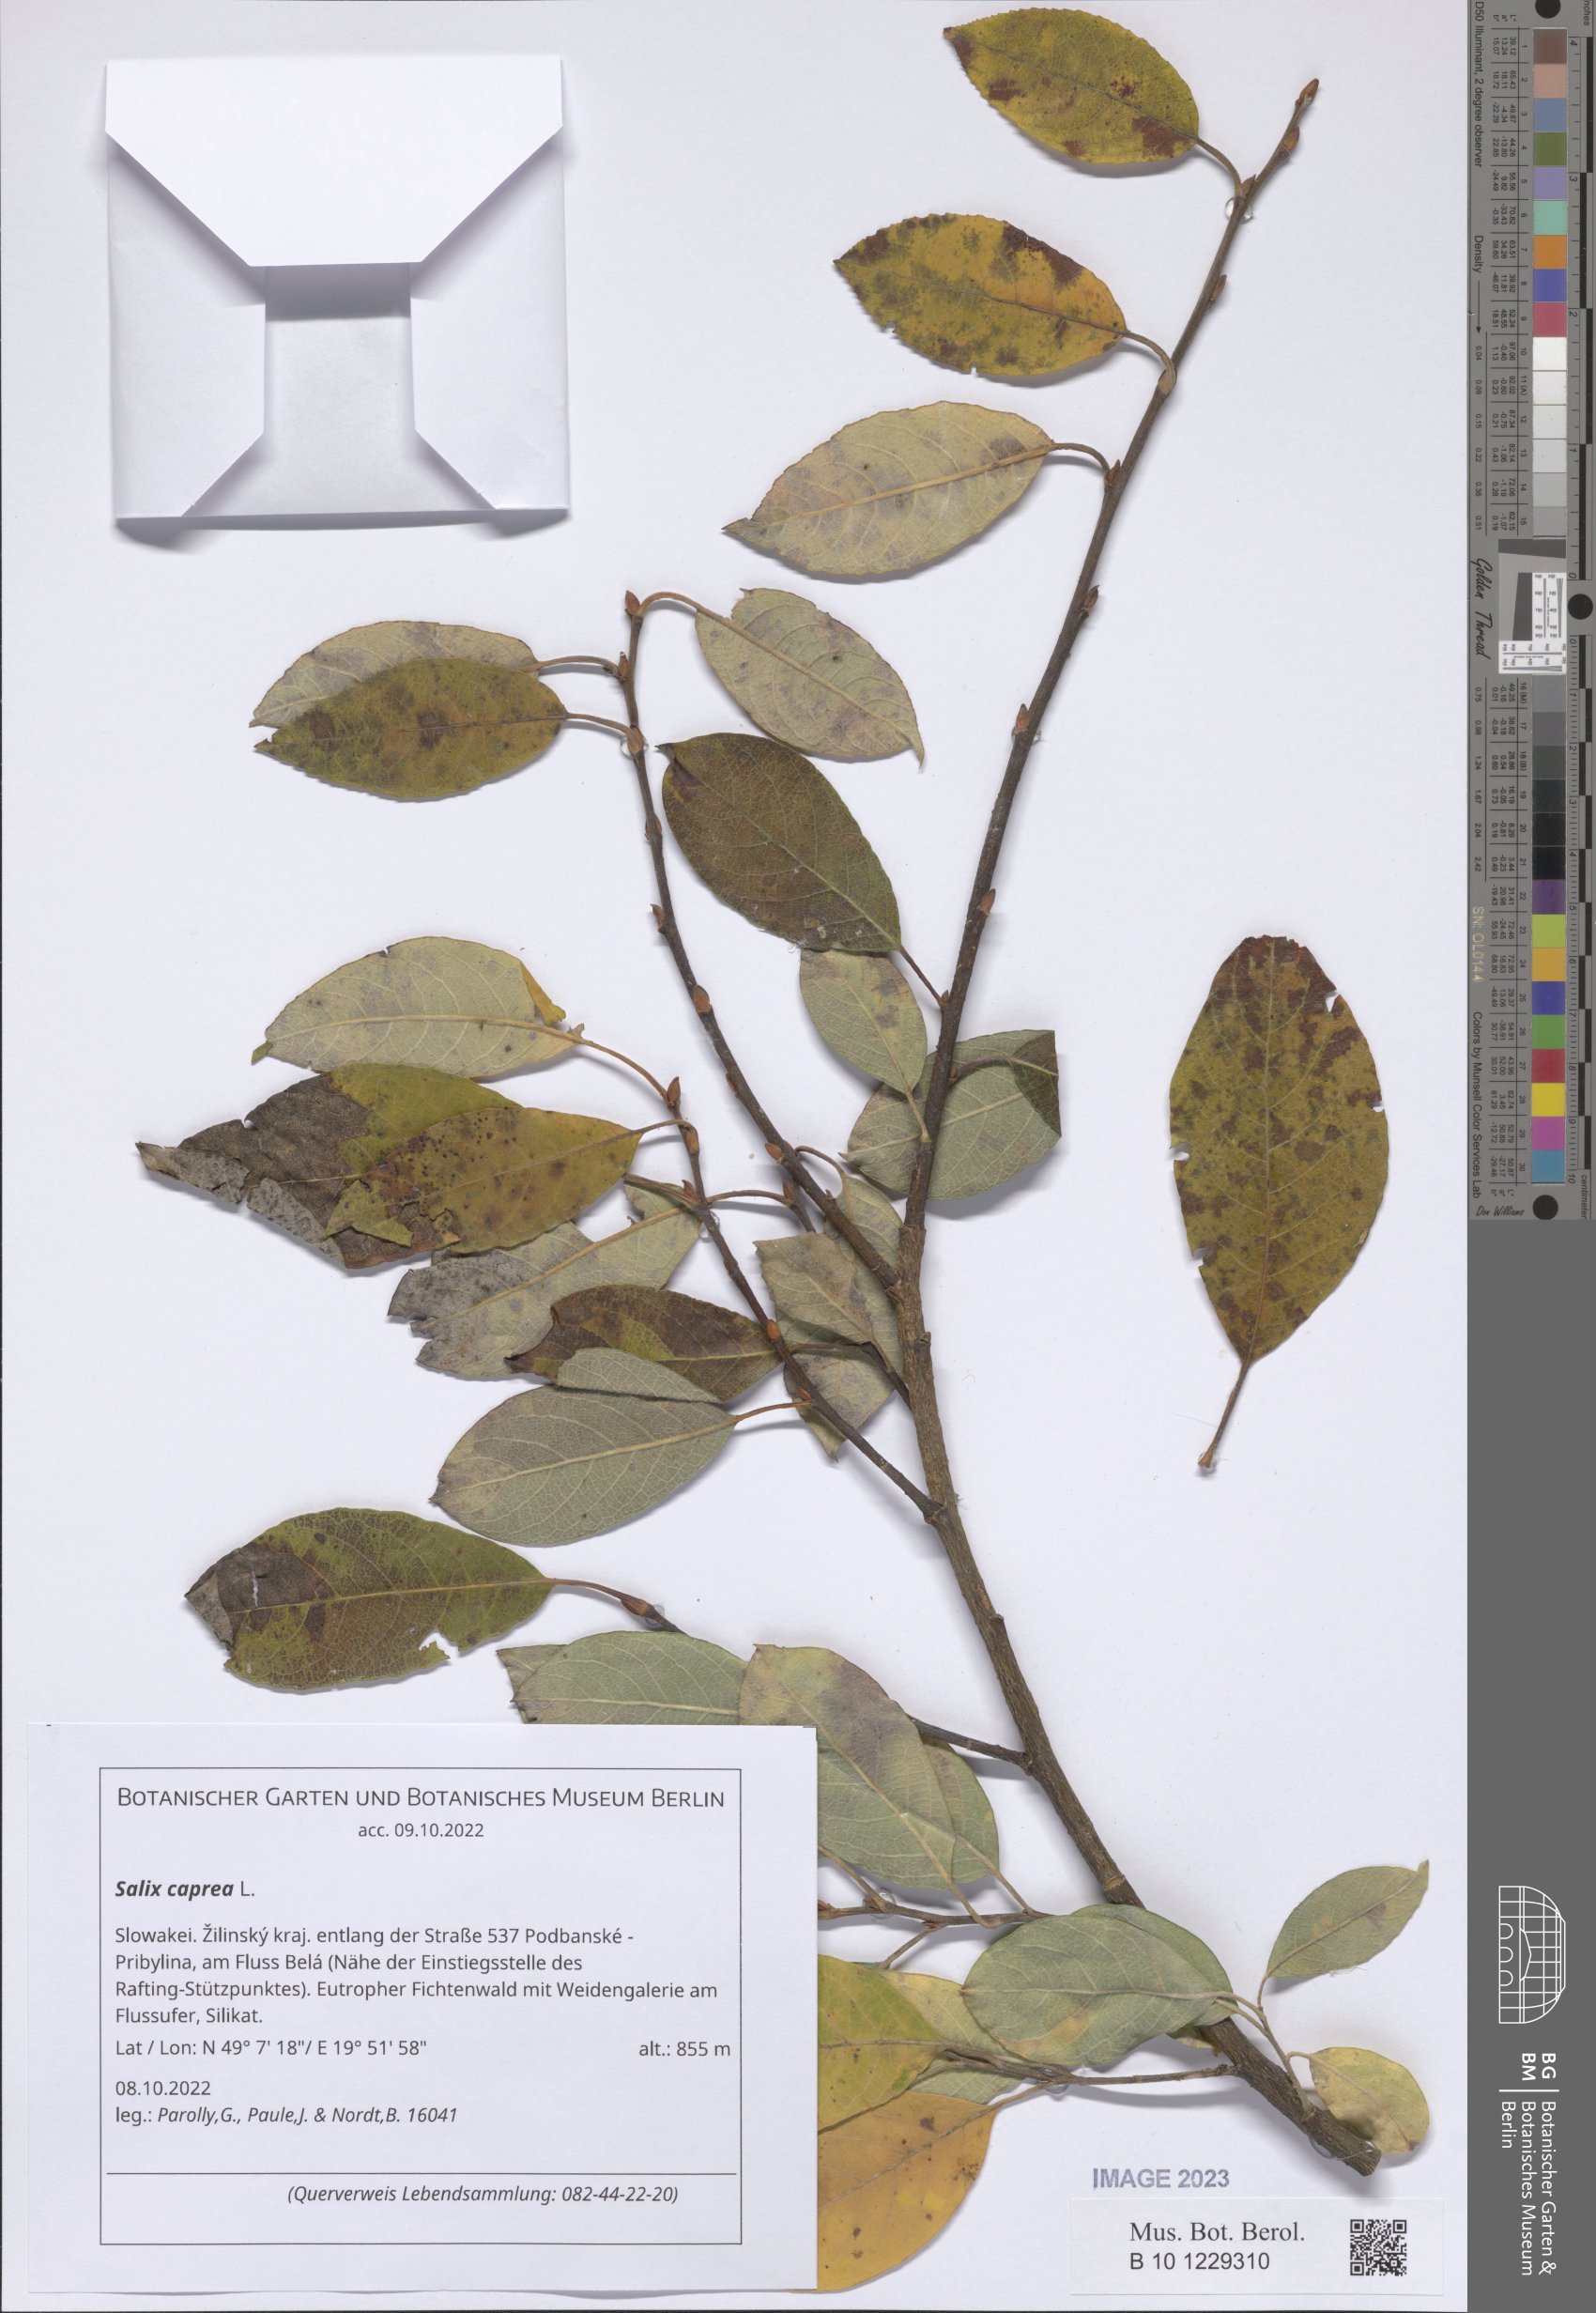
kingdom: Plantae
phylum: Tracheophyta
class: Magnoliopsida
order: Malpighiales
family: Salicaceae
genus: Salix
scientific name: Salix caprea
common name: Goat willow
